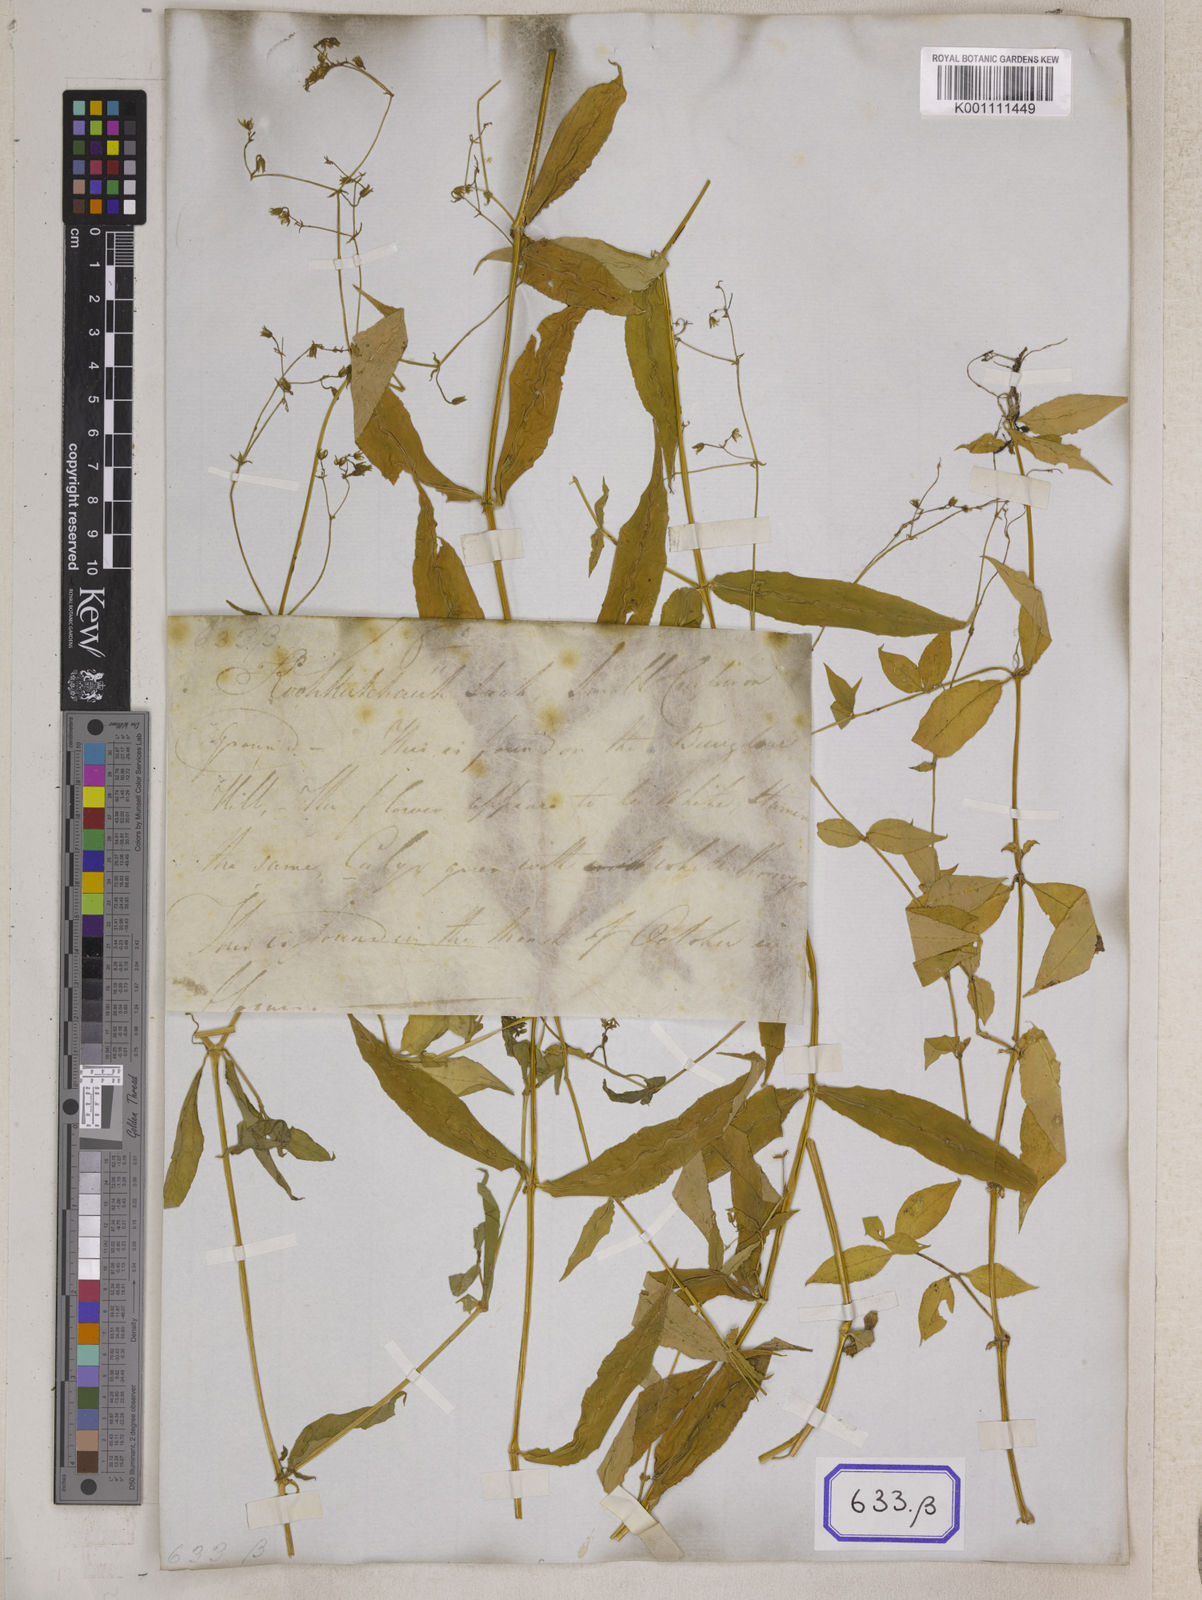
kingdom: Plantae
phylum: Tracheophyta
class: Magnoliopsida
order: Caryophyllales
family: Caryophyllaceae
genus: Stellaria
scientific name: Stellaria
